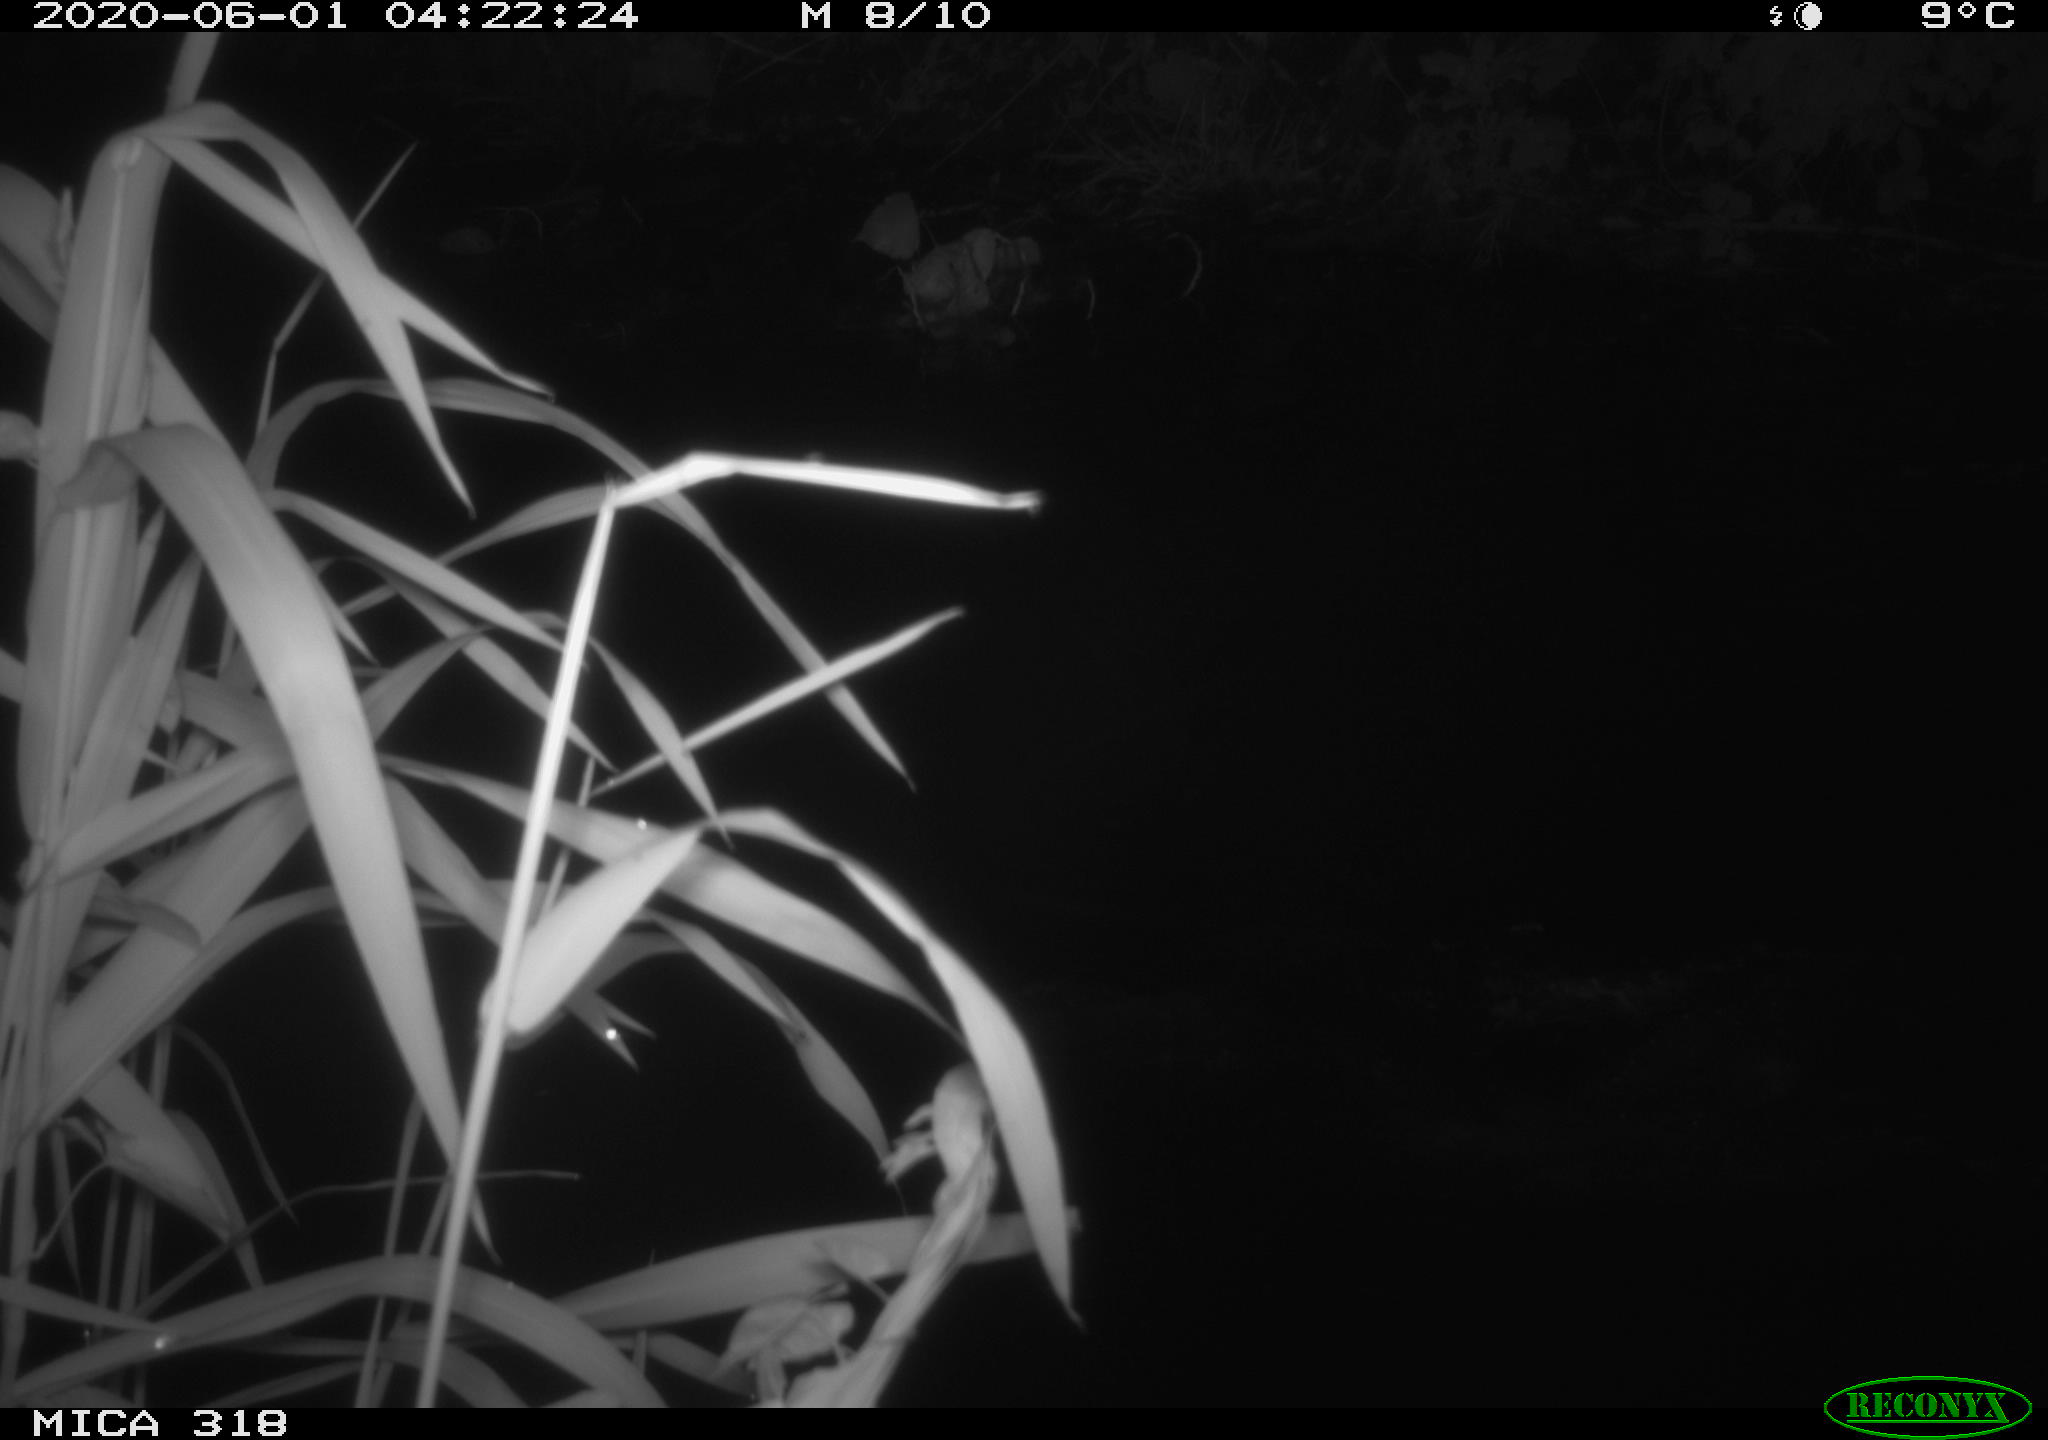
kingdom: Animalia
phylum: Chordata
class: Aves
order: Anseriformes
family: Anatidae
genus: Anas
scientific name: Anas platyrhynchos
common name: Mallard
